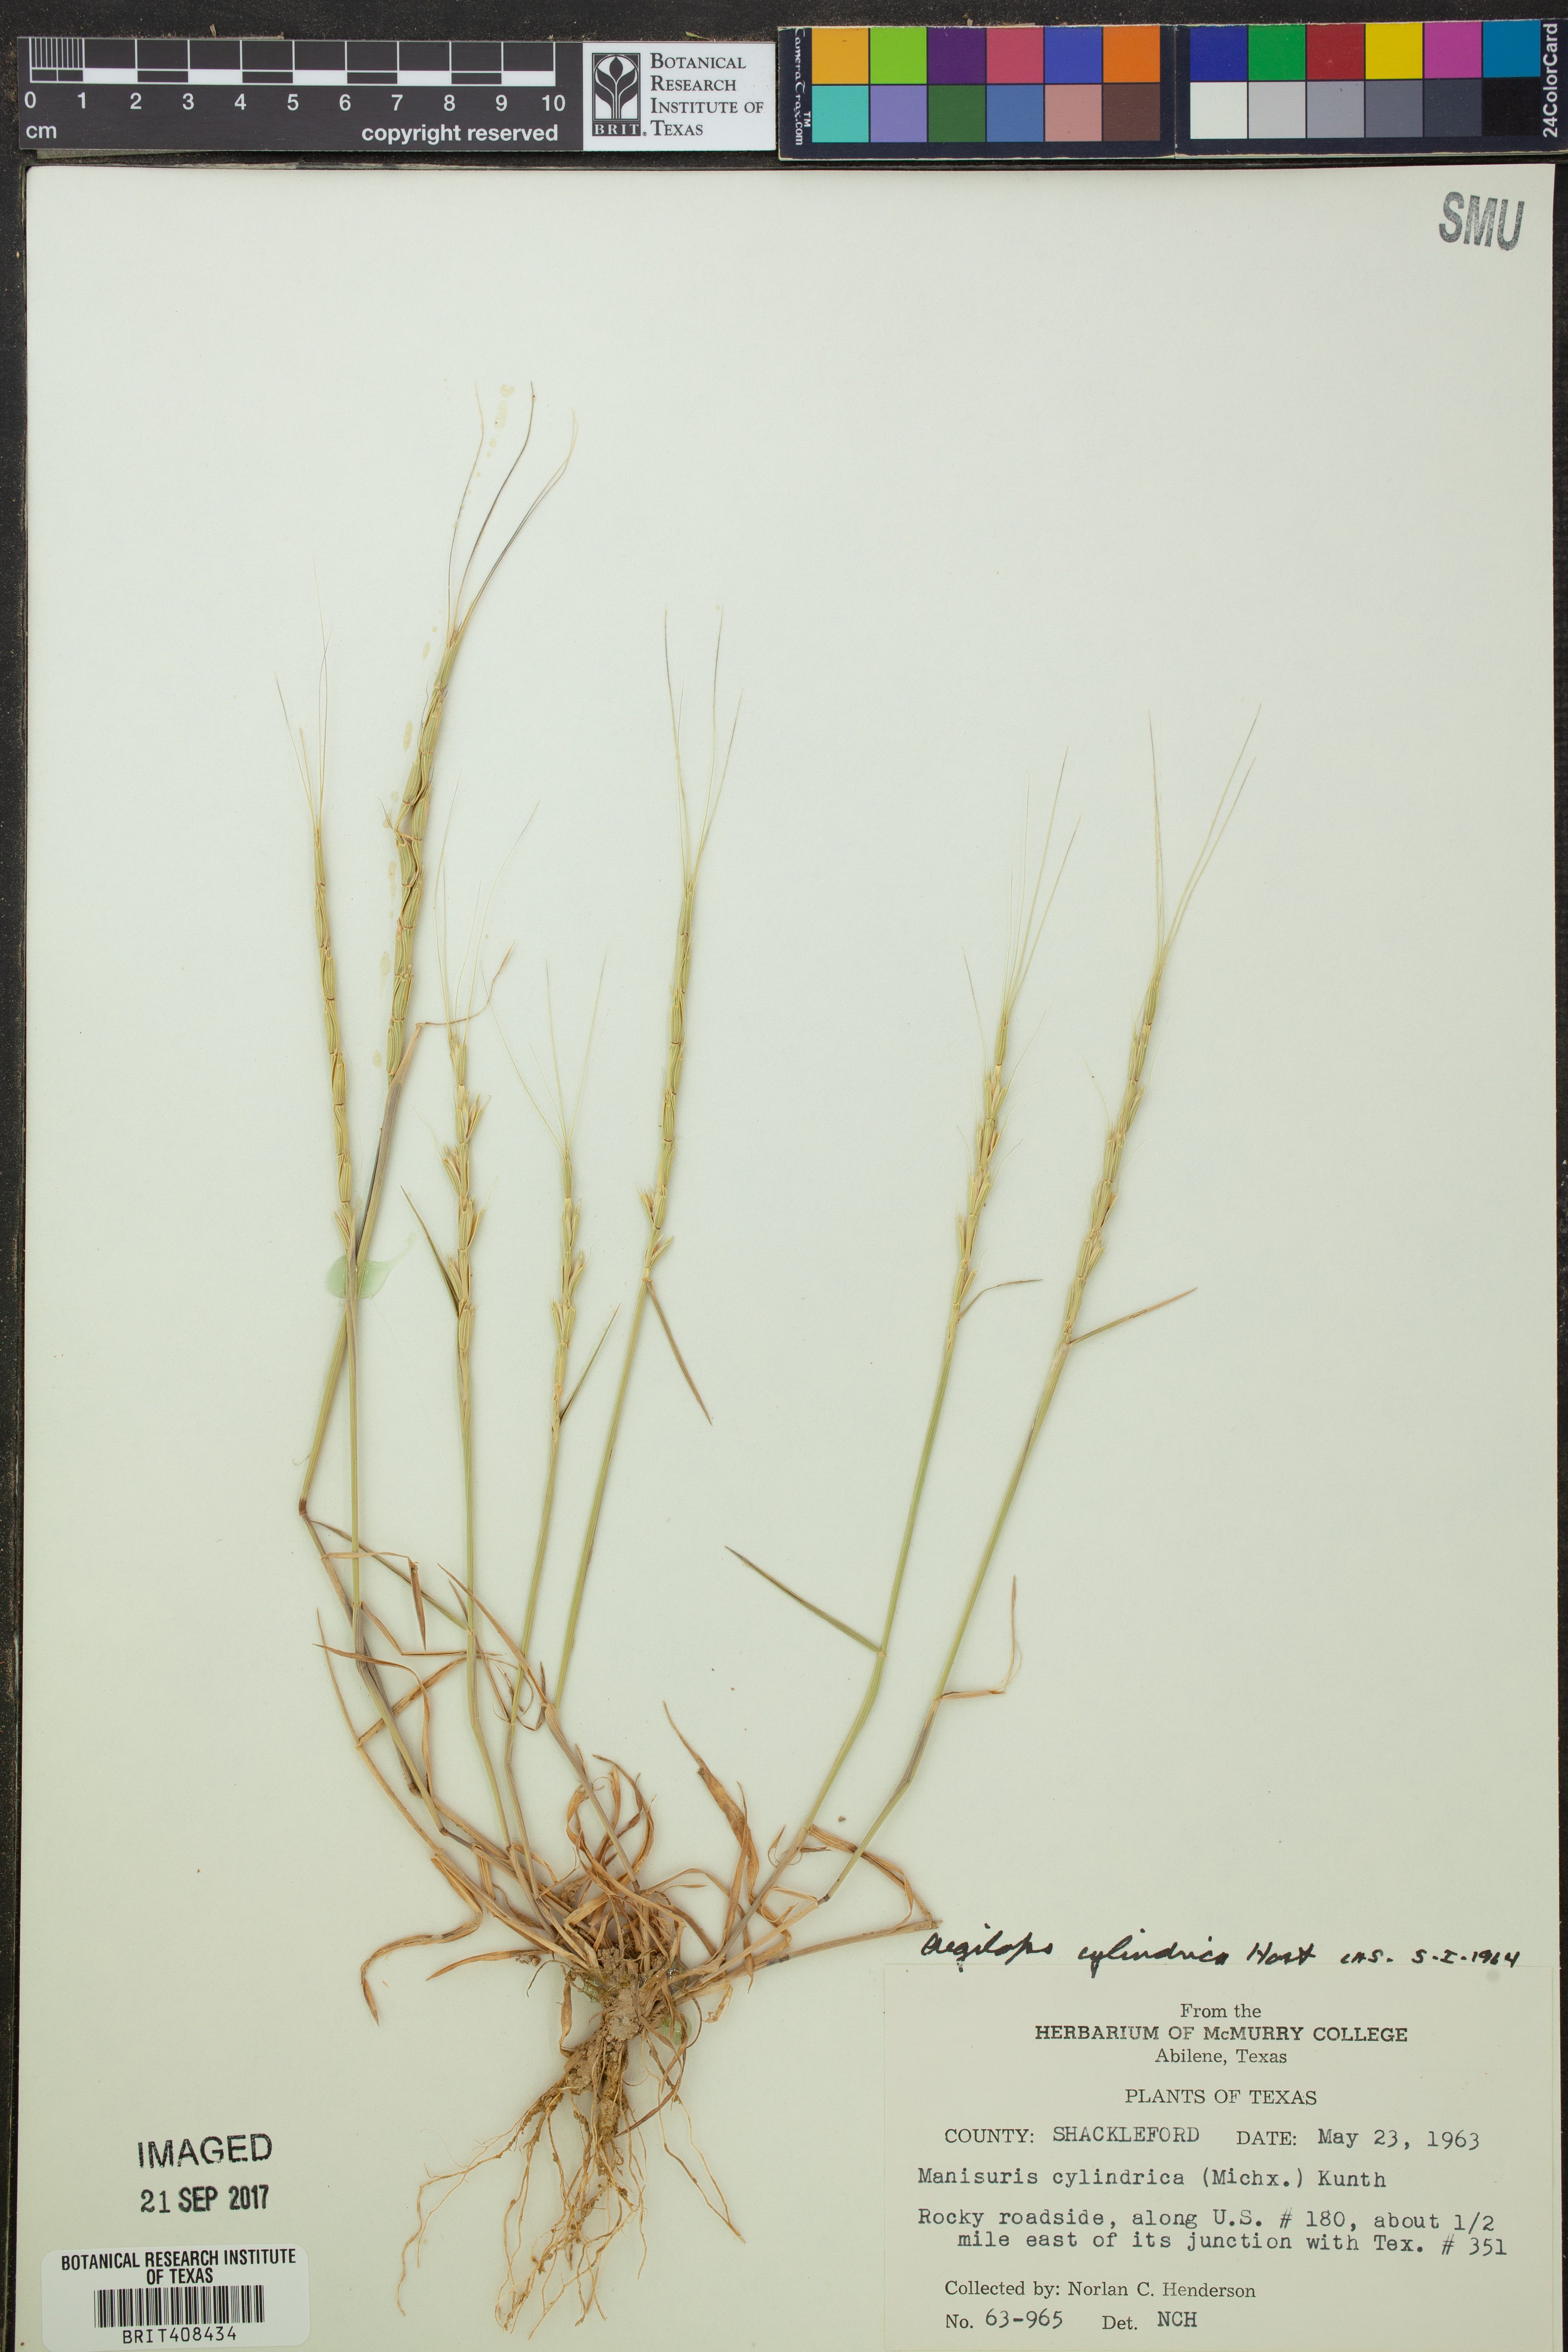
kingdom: Plantae
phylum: Tracheophyta
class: Liliopsida
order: Poales
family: Poaceae
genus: Aegilops
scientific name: Aegilops cylindrica
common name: Jointed goatgrass
